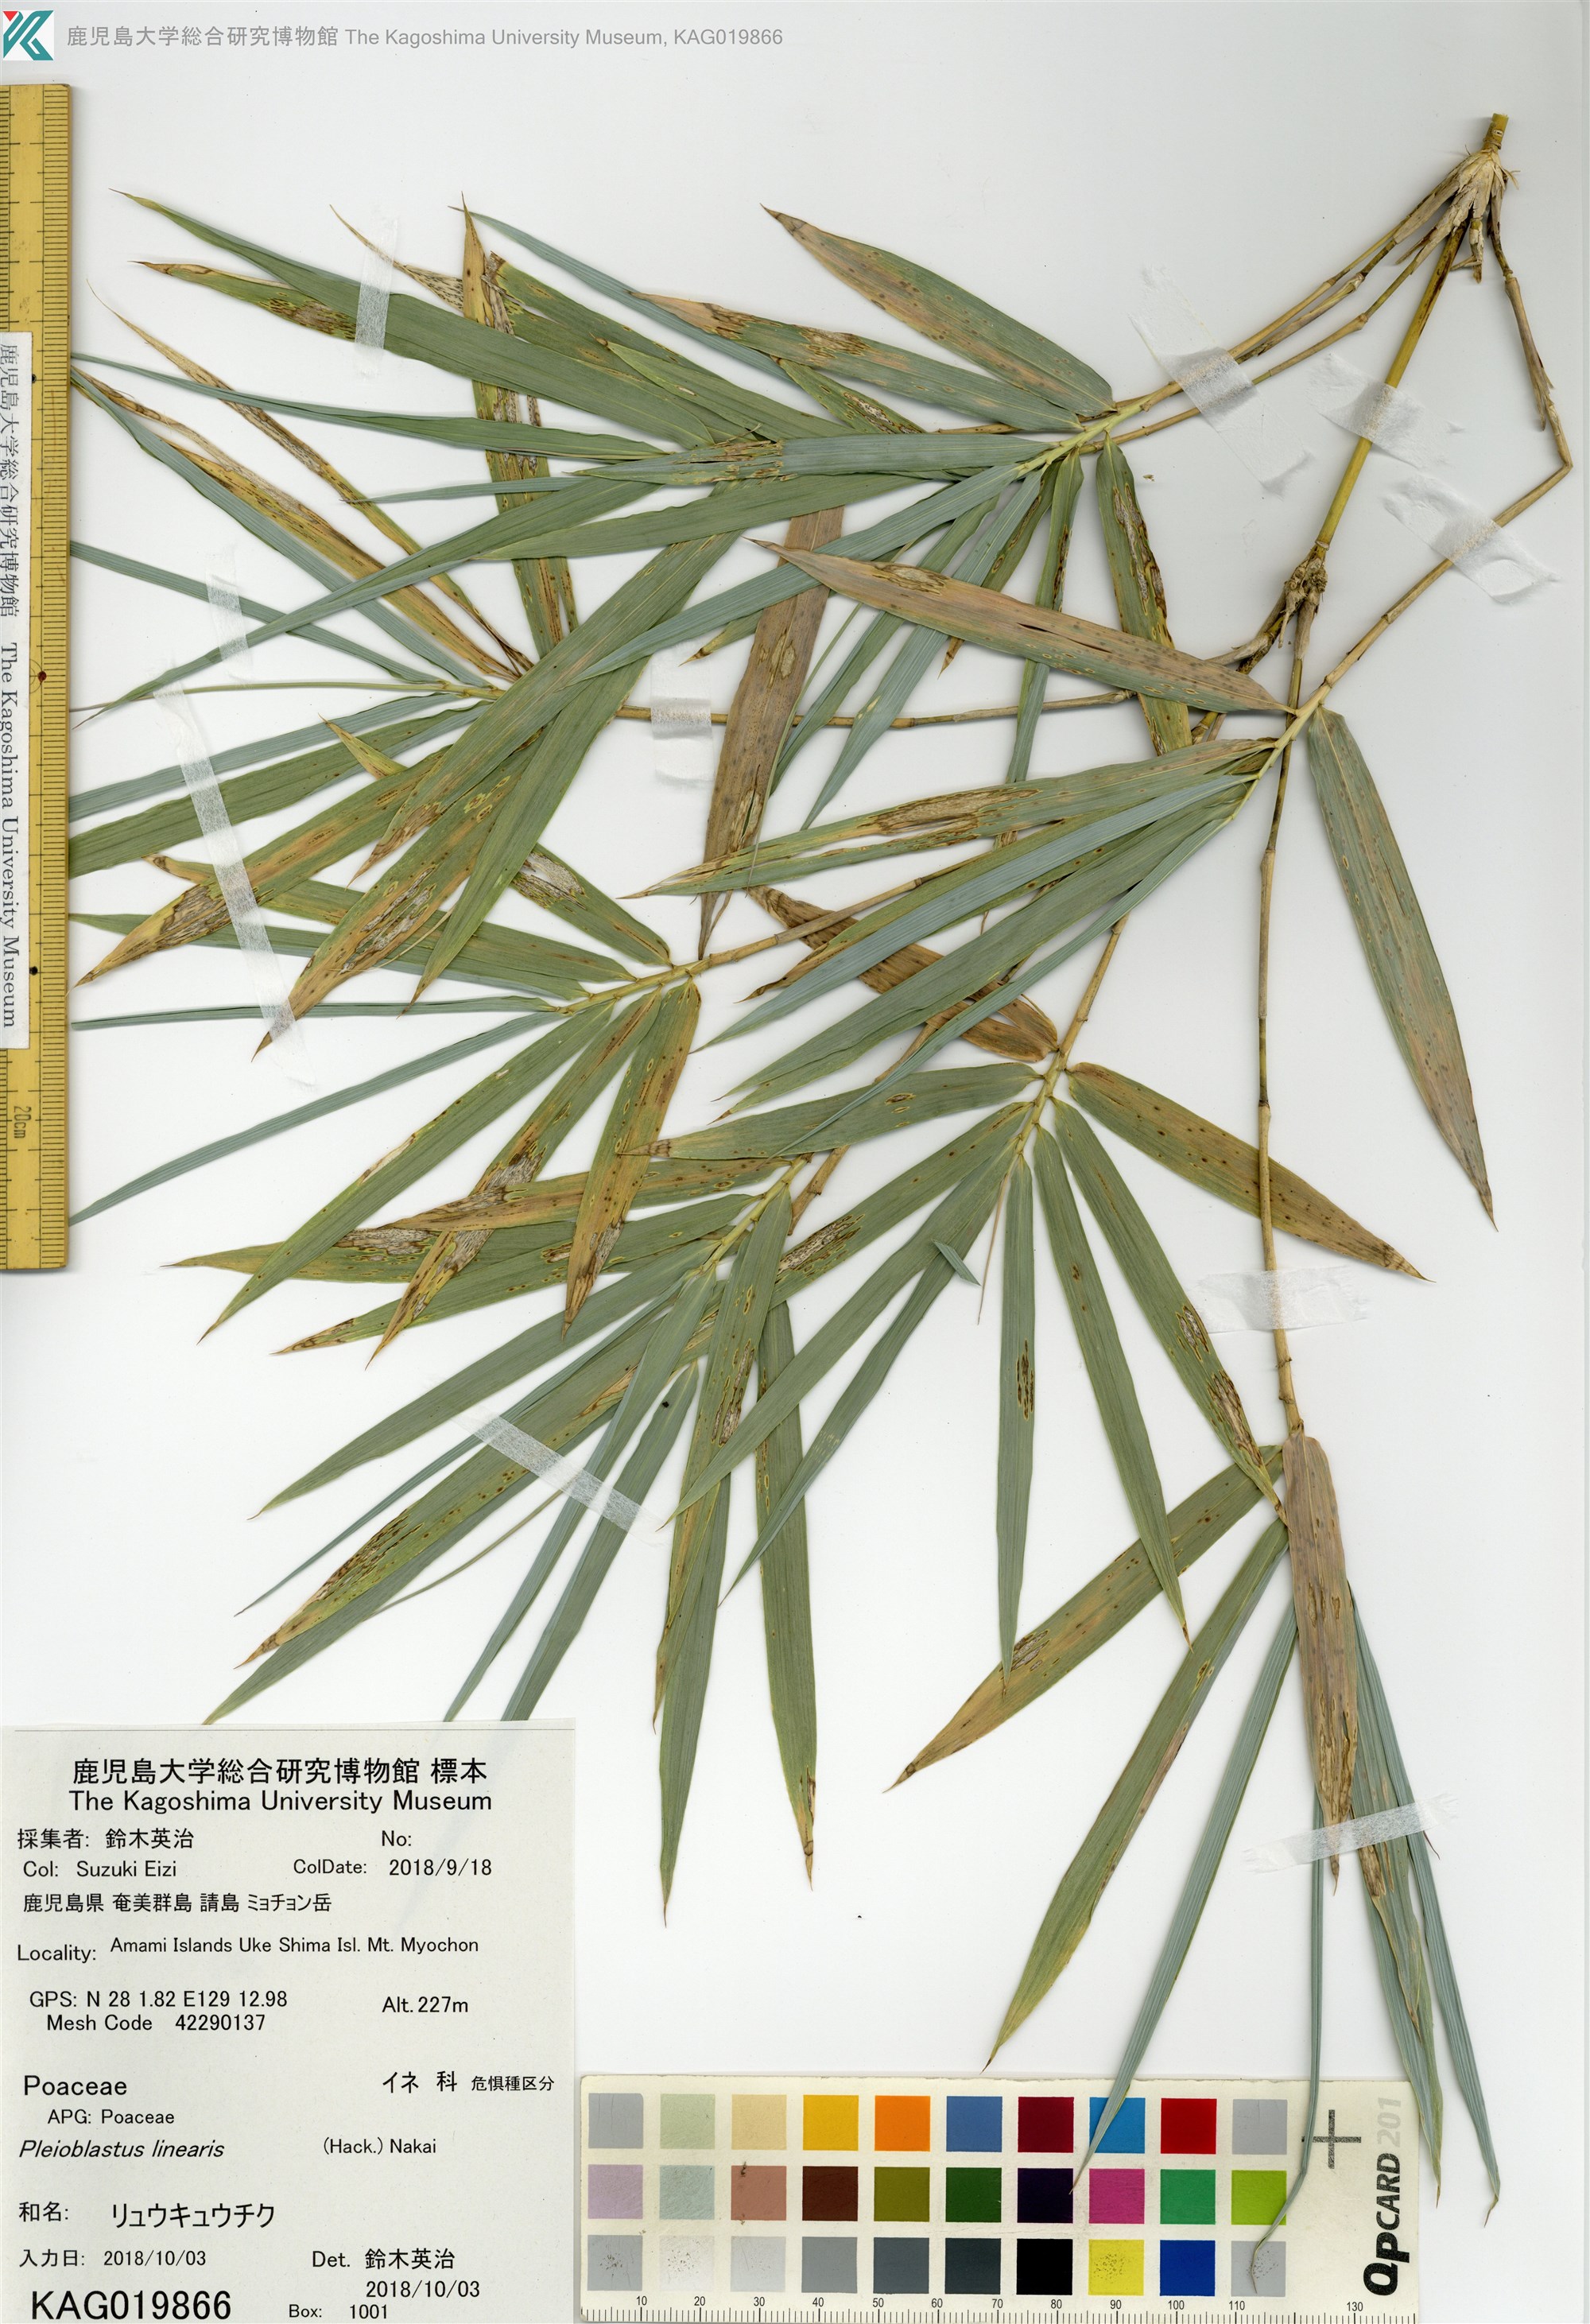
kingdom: Plantae
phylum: Tracheophyta
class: Liliopsida
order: Poales
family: Poaceae
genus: Pleioblastus
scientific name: Pleioblastus linearis
